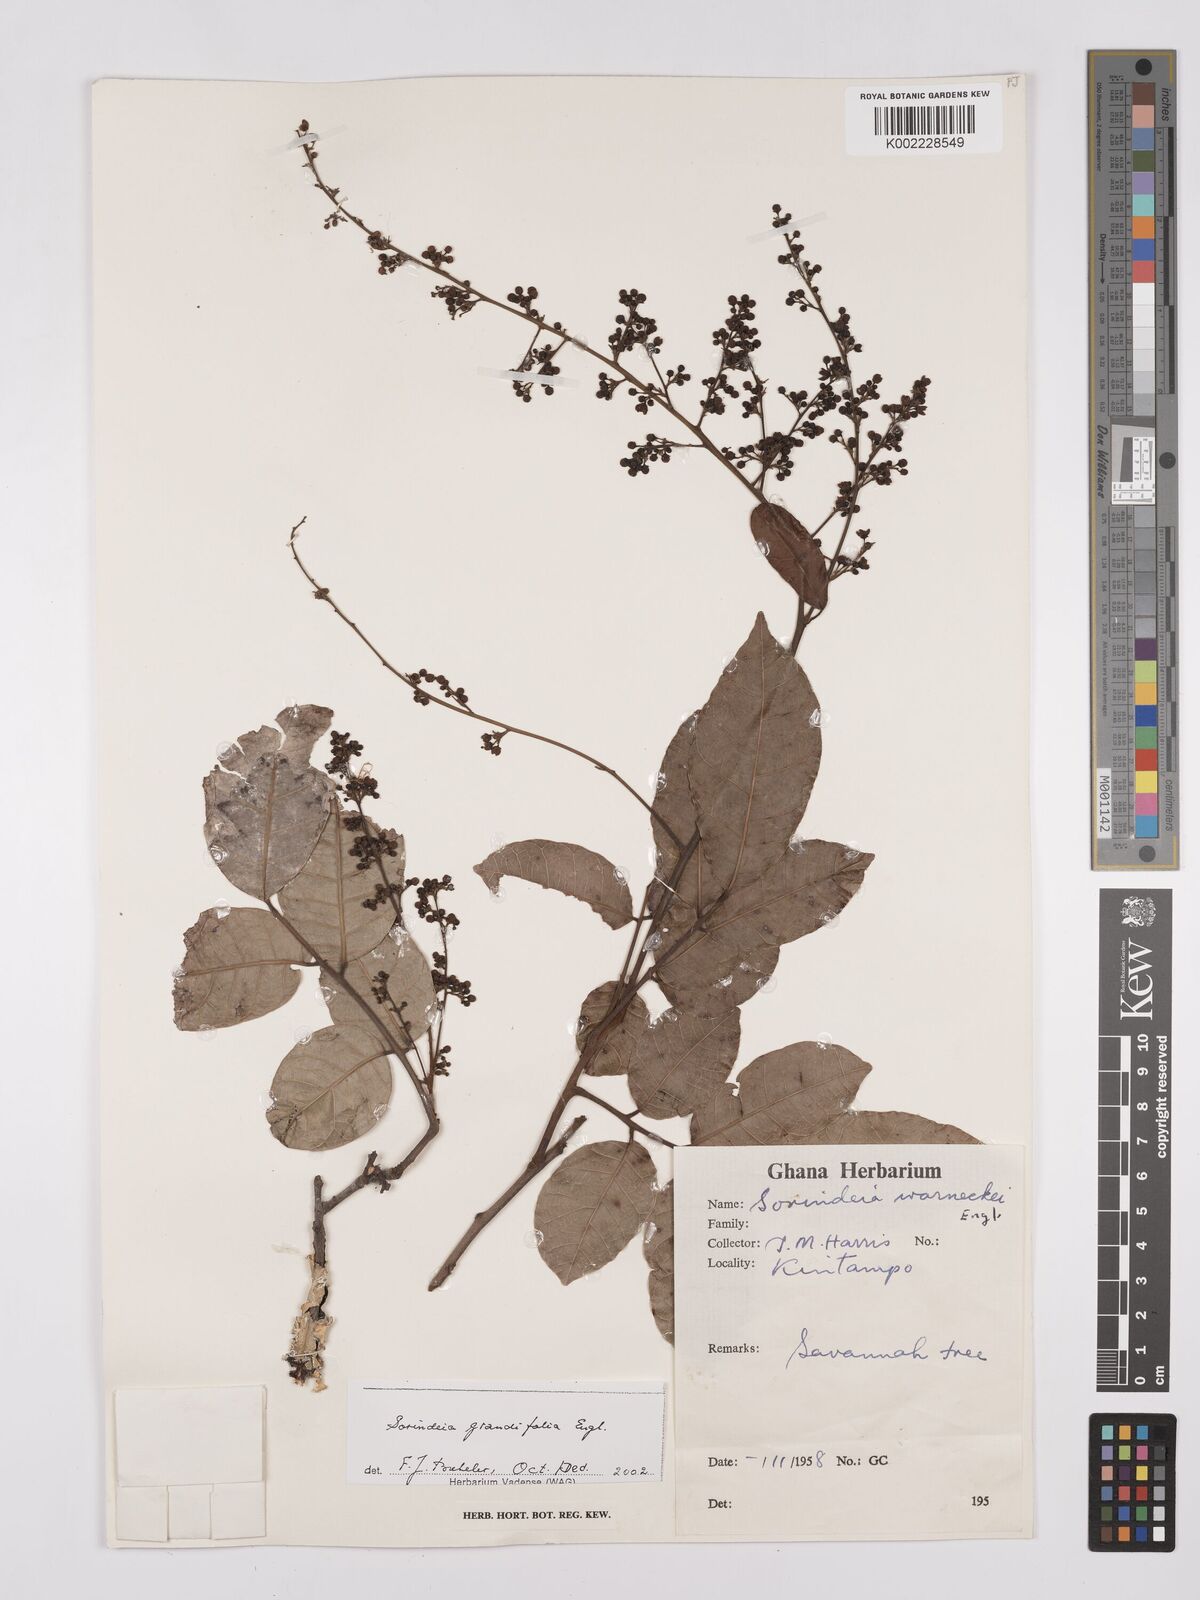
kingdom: Plantae
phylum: Tracheophyta
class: Magnoliopsida
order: Sapindales
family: Anacardiaceae
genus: Sorindeia
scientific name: Sorindeia grandifolia
